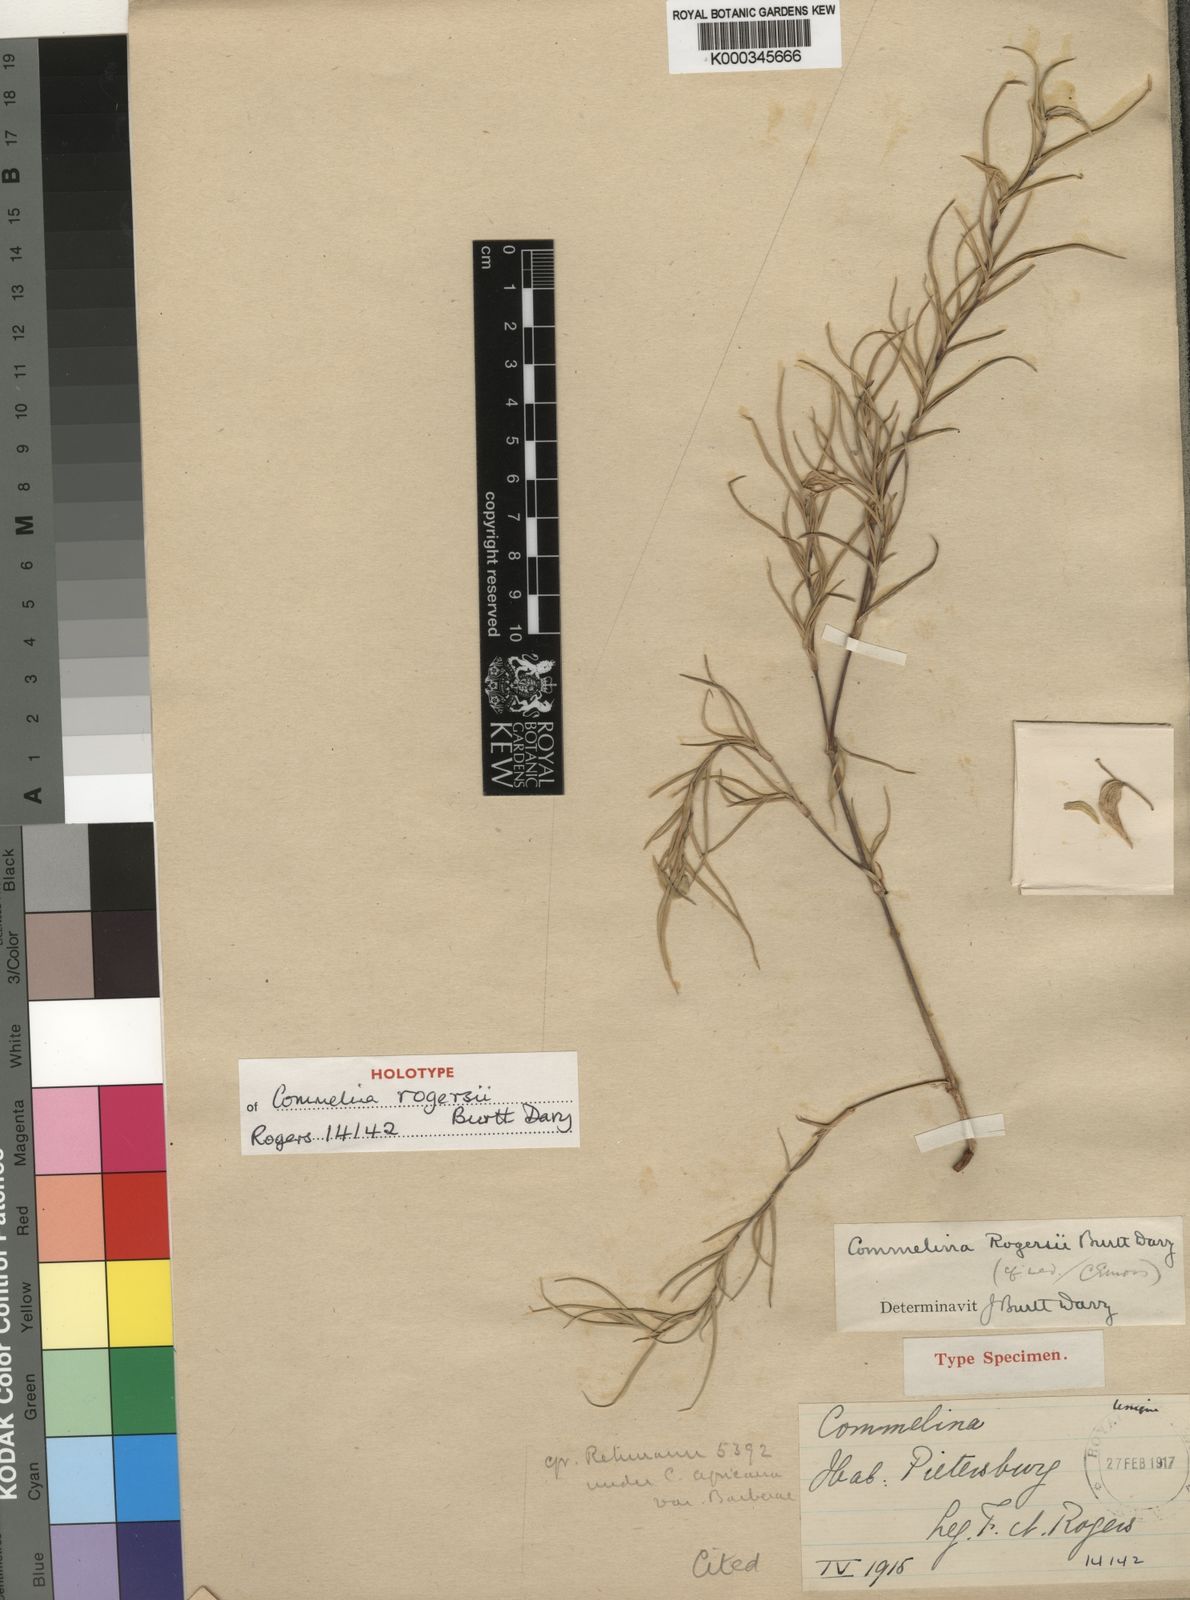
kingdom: Plantae
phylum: Tracheophyta
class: Liliopsida
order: Commelinales
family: Commelinaceae
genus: Commelina
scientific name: Commelina rogersii
